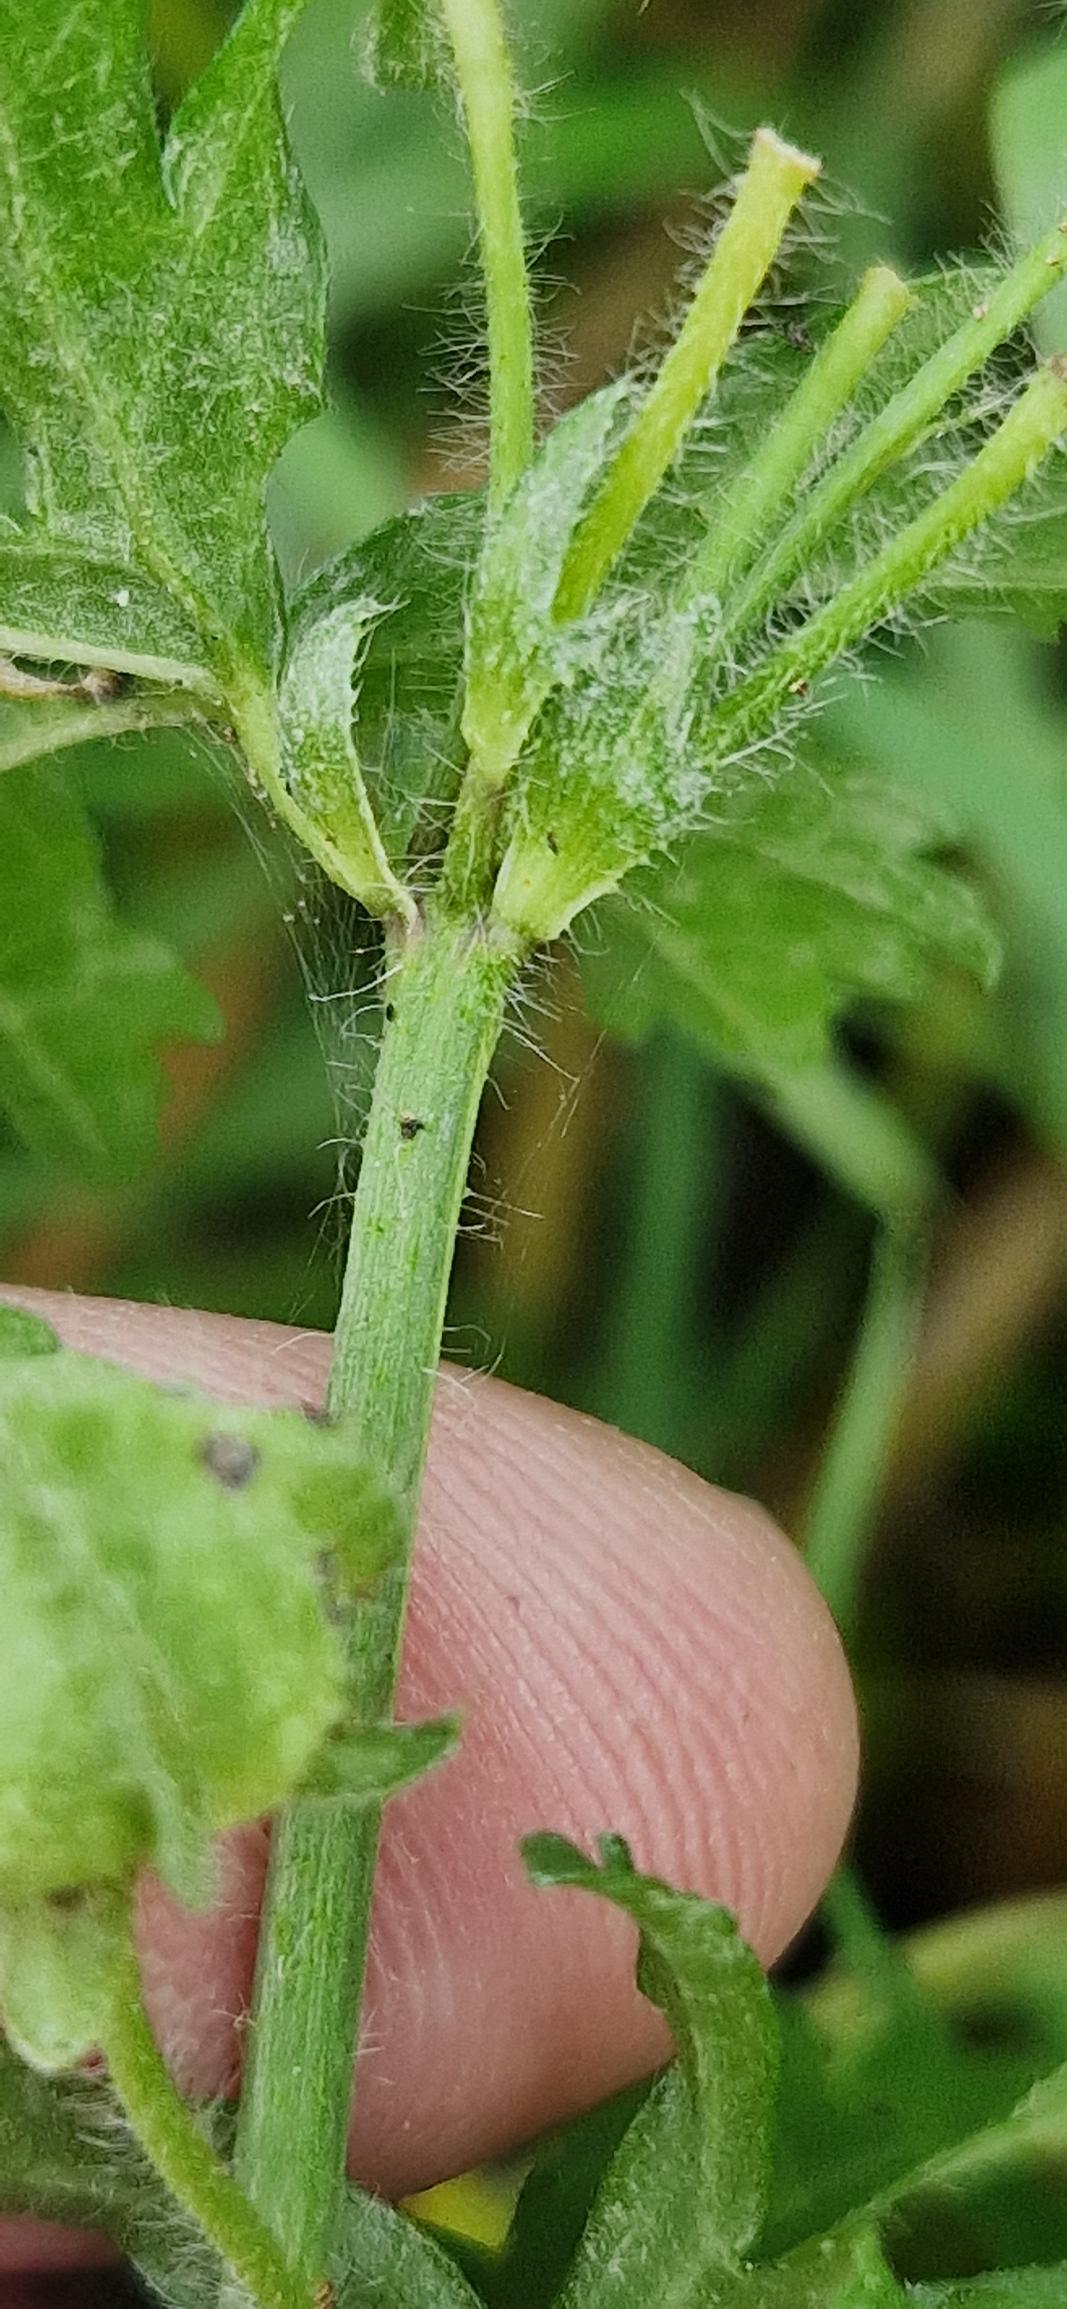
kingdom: Plantae
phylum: Tracheophyta
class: Magnoliopsida
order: Malvales
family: Malvaceae
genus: Malva
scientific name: Malva moschata
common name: Moskus-katost
